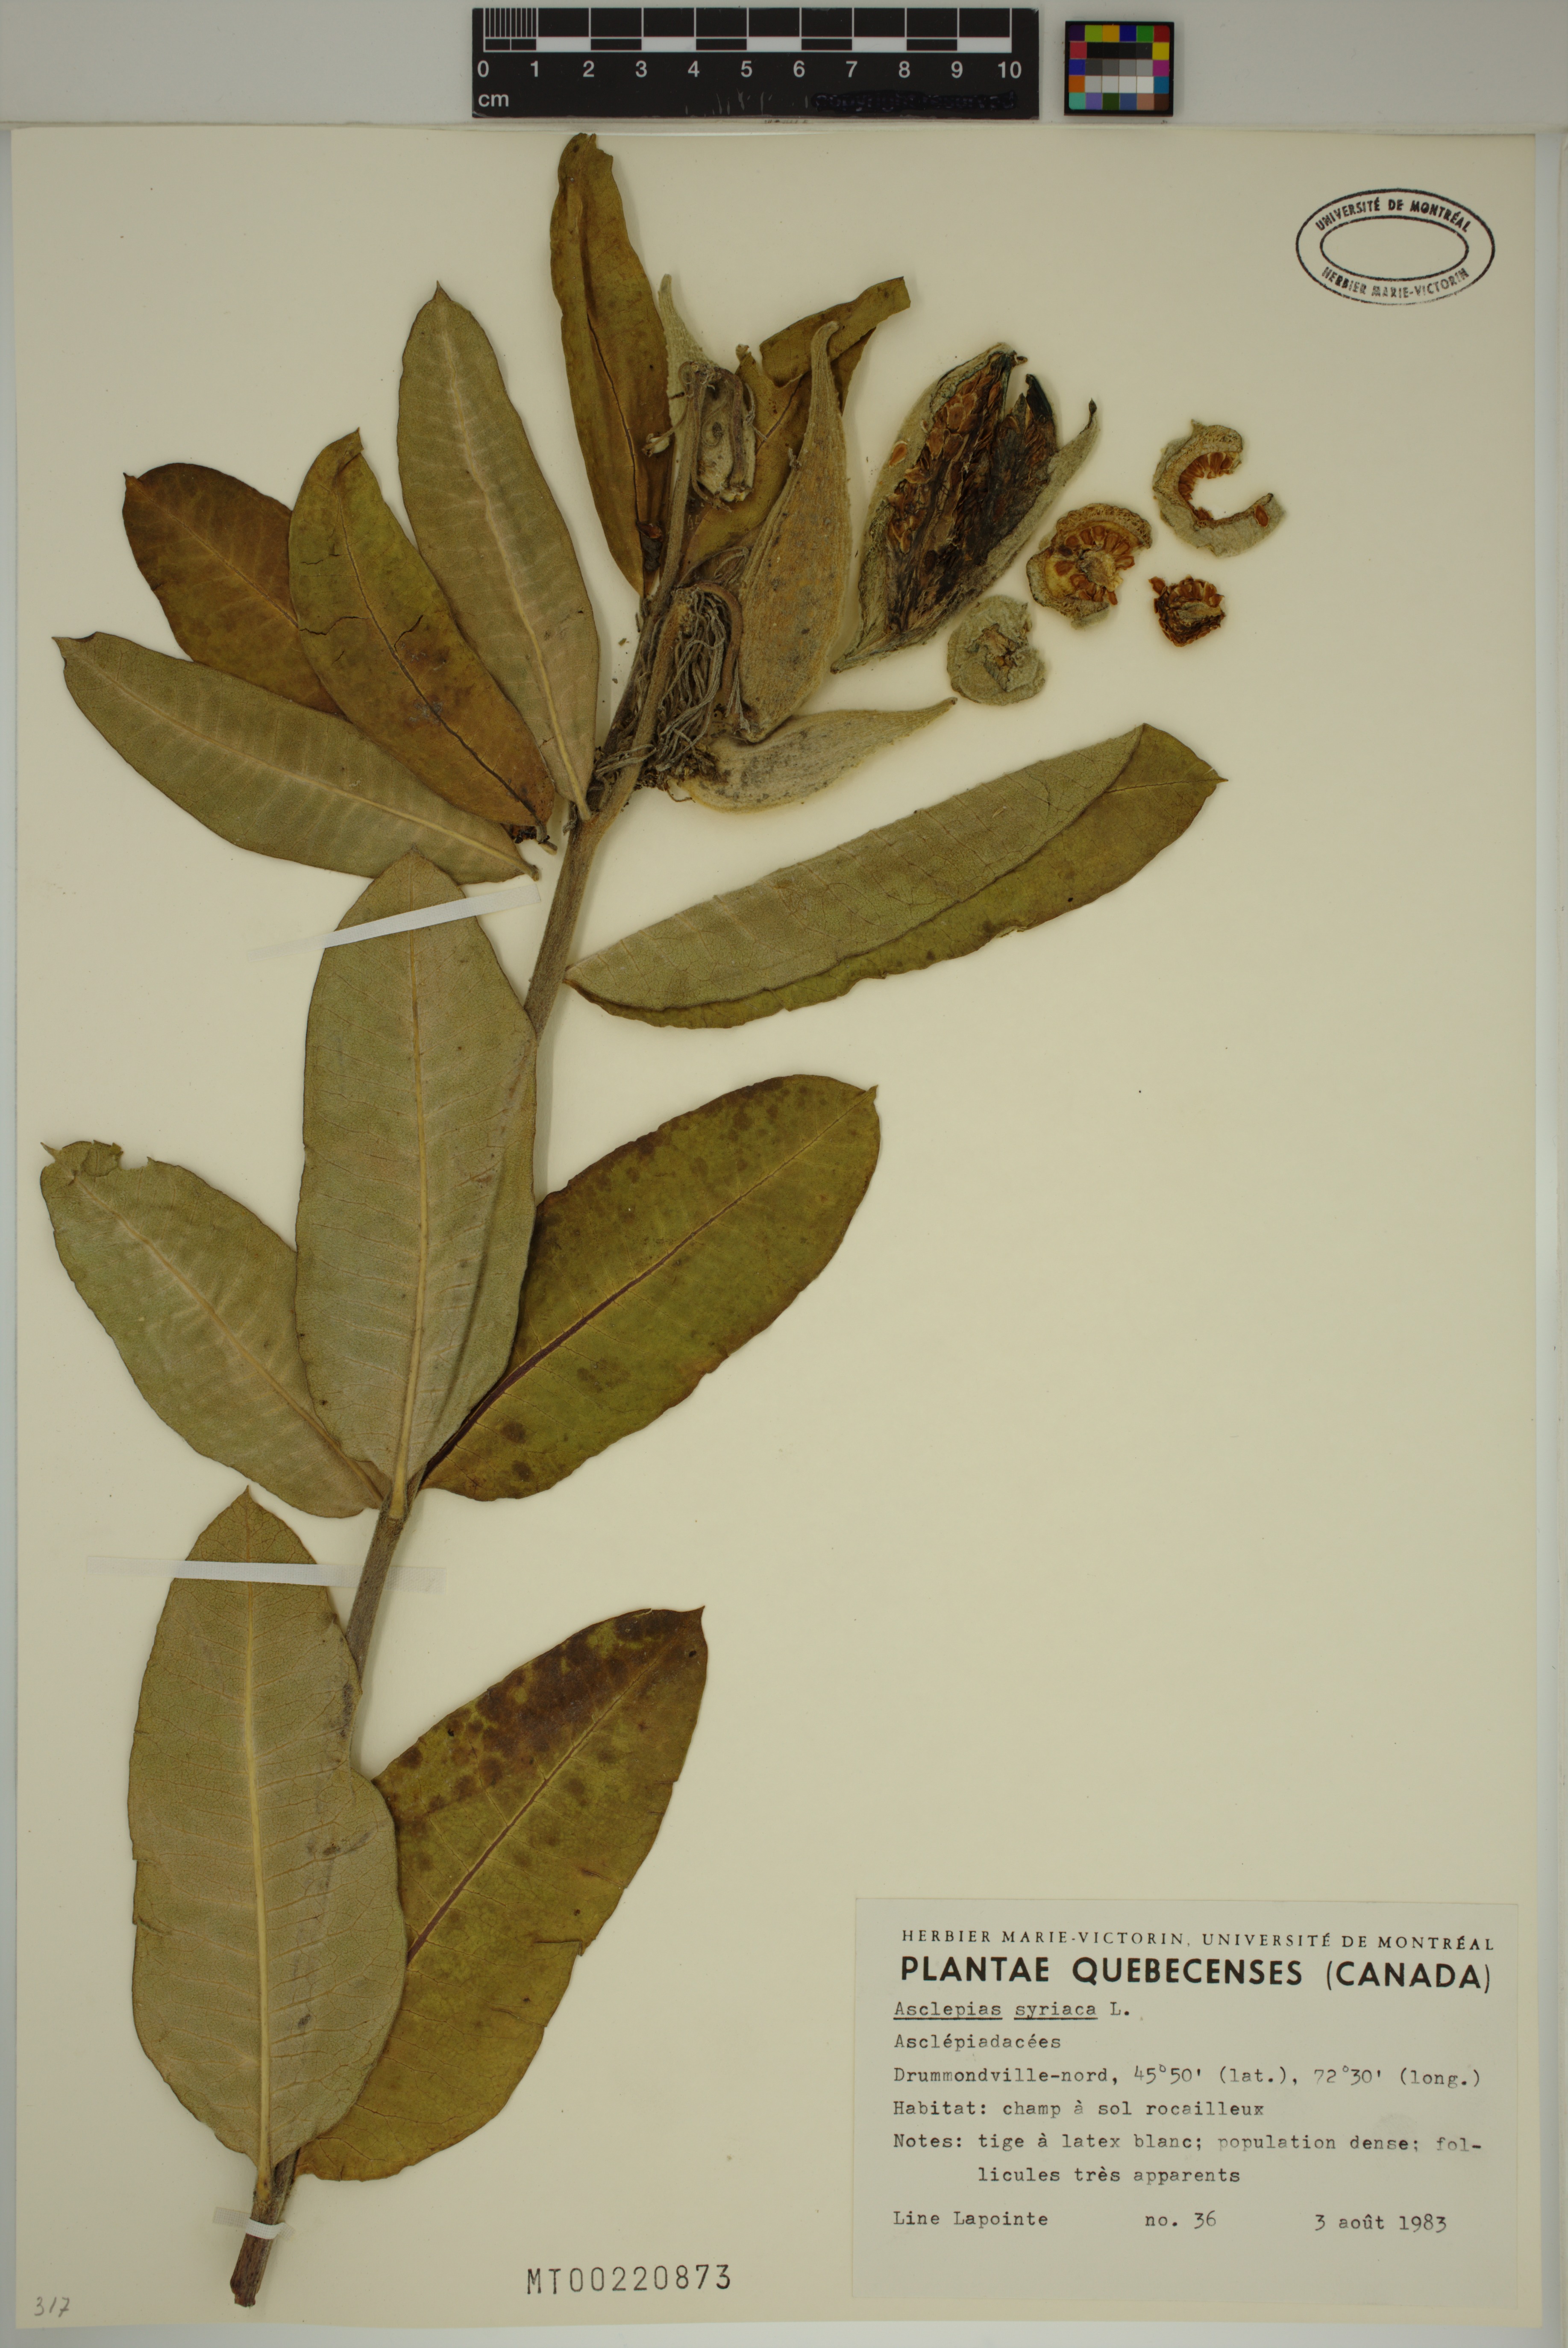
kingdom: Plantae
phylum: Tracheophyta
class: Magnoliopsida
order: Gentianales
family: Apocynaceae
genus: Asclepias
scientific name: Asclepias syriaca
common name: Common milkweed
